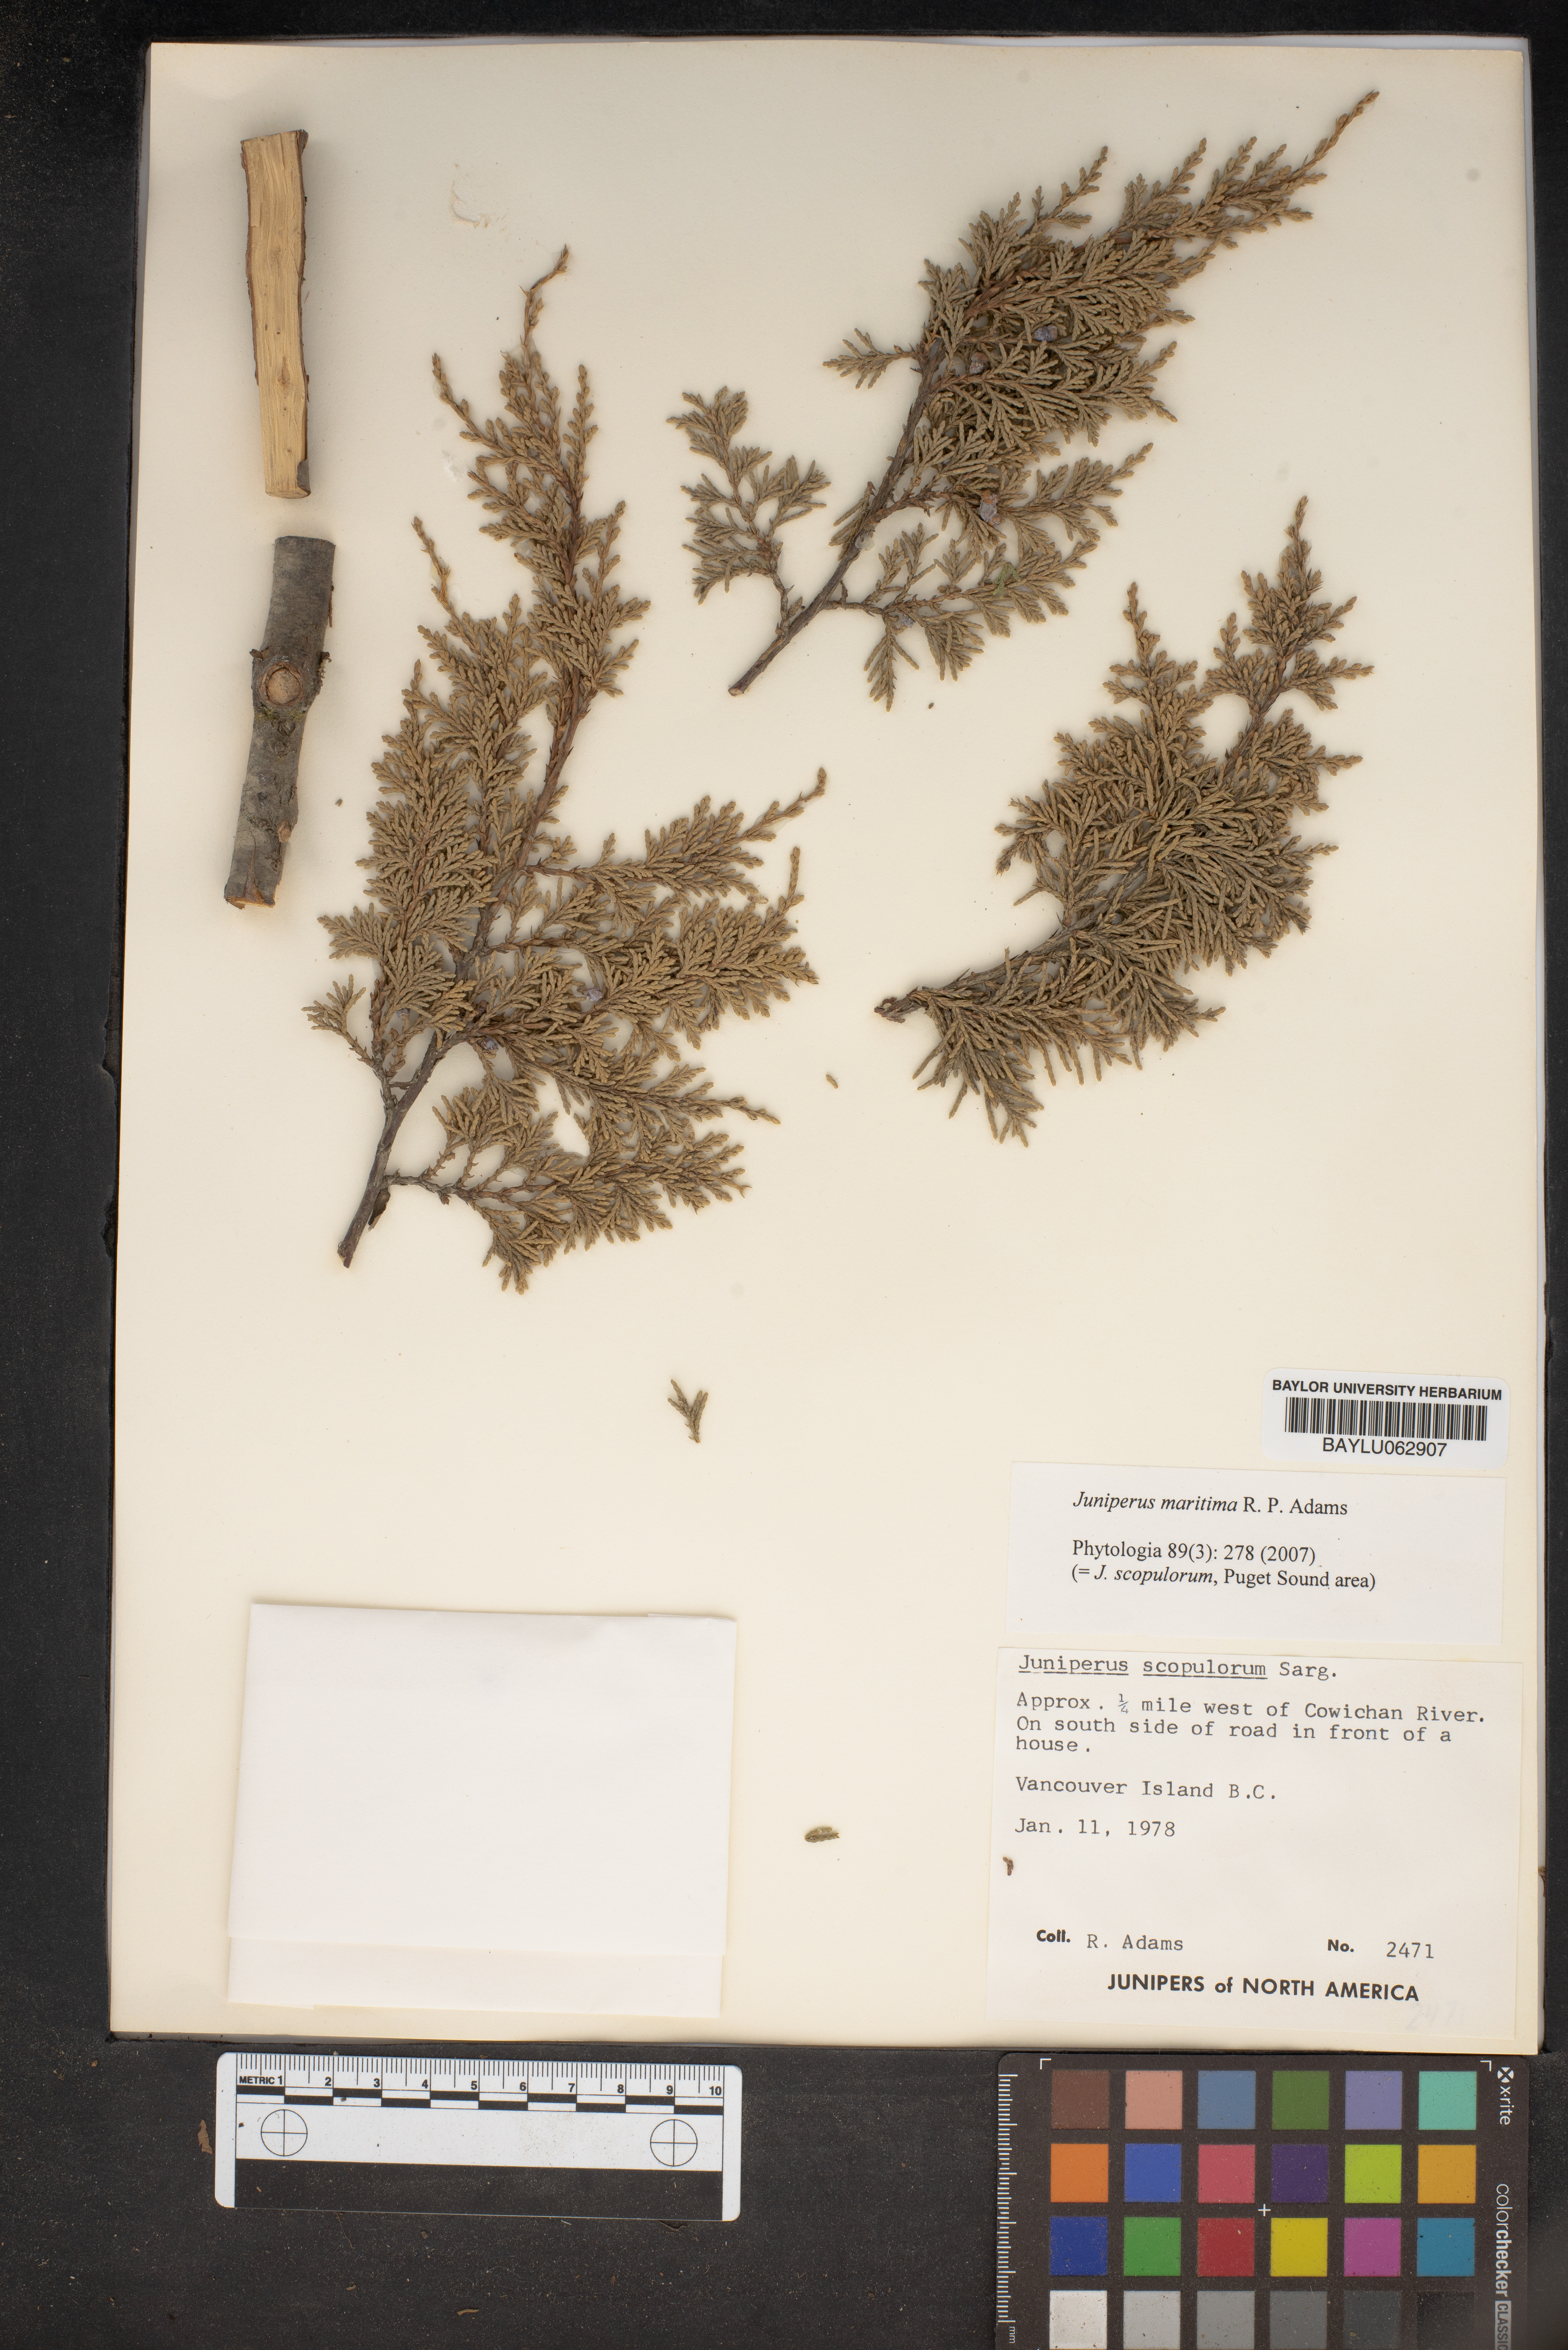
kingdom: Plantae
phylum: Tracheophyta
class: Pinopsida
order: Pinales
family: Cupressaceae
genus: Juniperus
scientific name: Juniperus scopulorum
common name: Rocky mountain juniper
